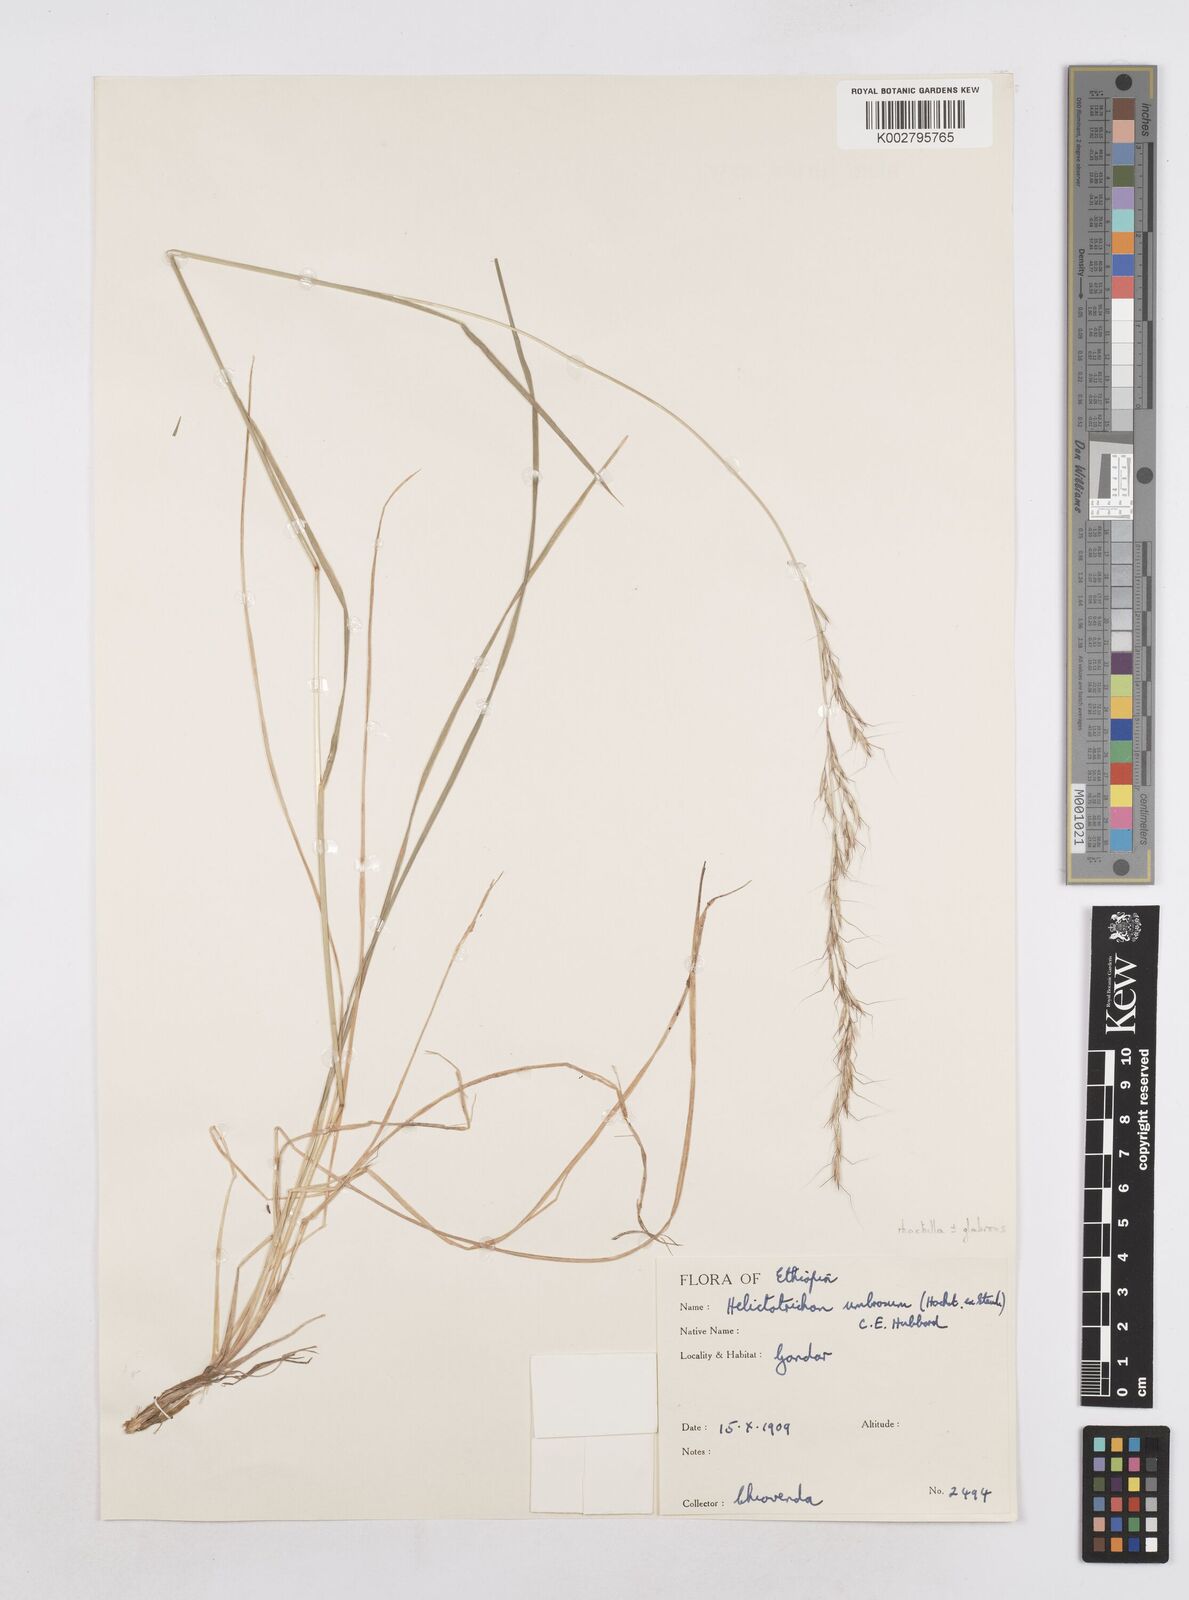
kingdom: Plantae
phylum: Tracheophyta
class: Liliopsida
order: Poales
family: Poaceae
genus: Trisetopsis
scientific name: Trisetopsis umbrosa
